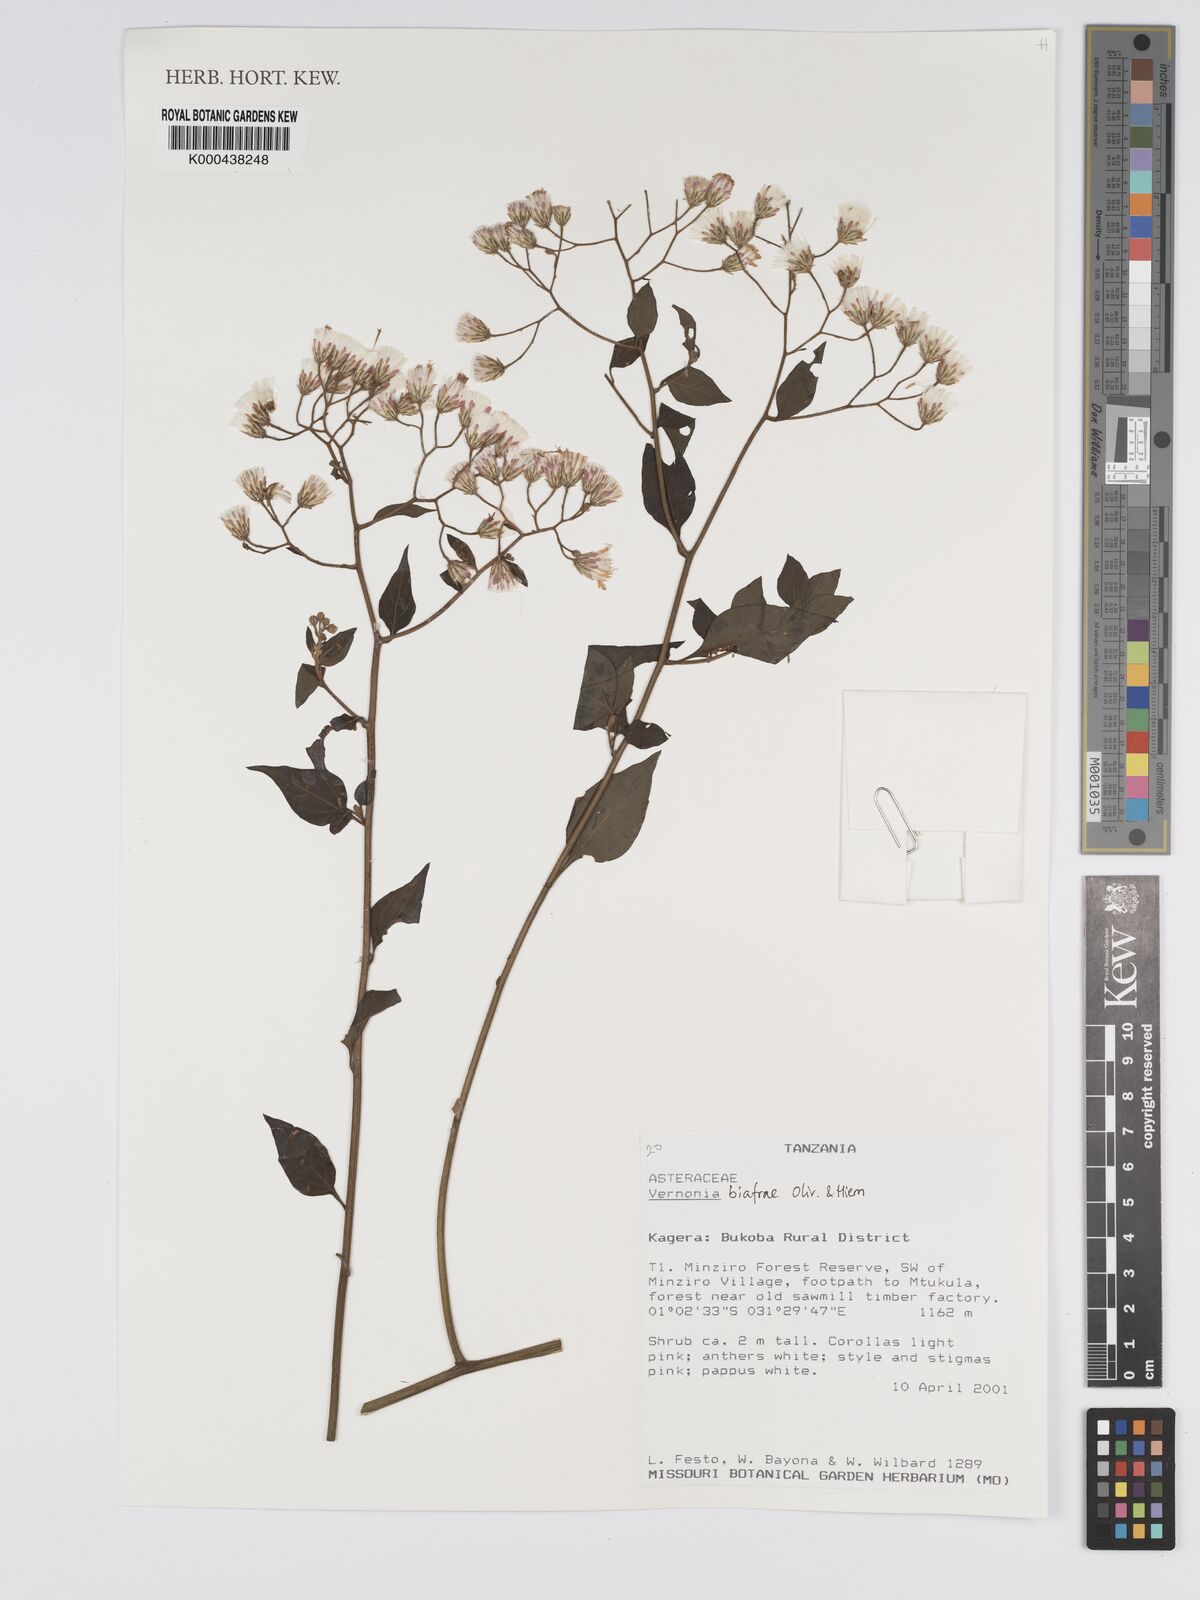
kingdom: Plantae
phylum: Tracheophyta
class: Magnoliopsida
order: Asterales
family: Asteraceae
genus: Distephanus
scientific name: Distephanus biafrae
